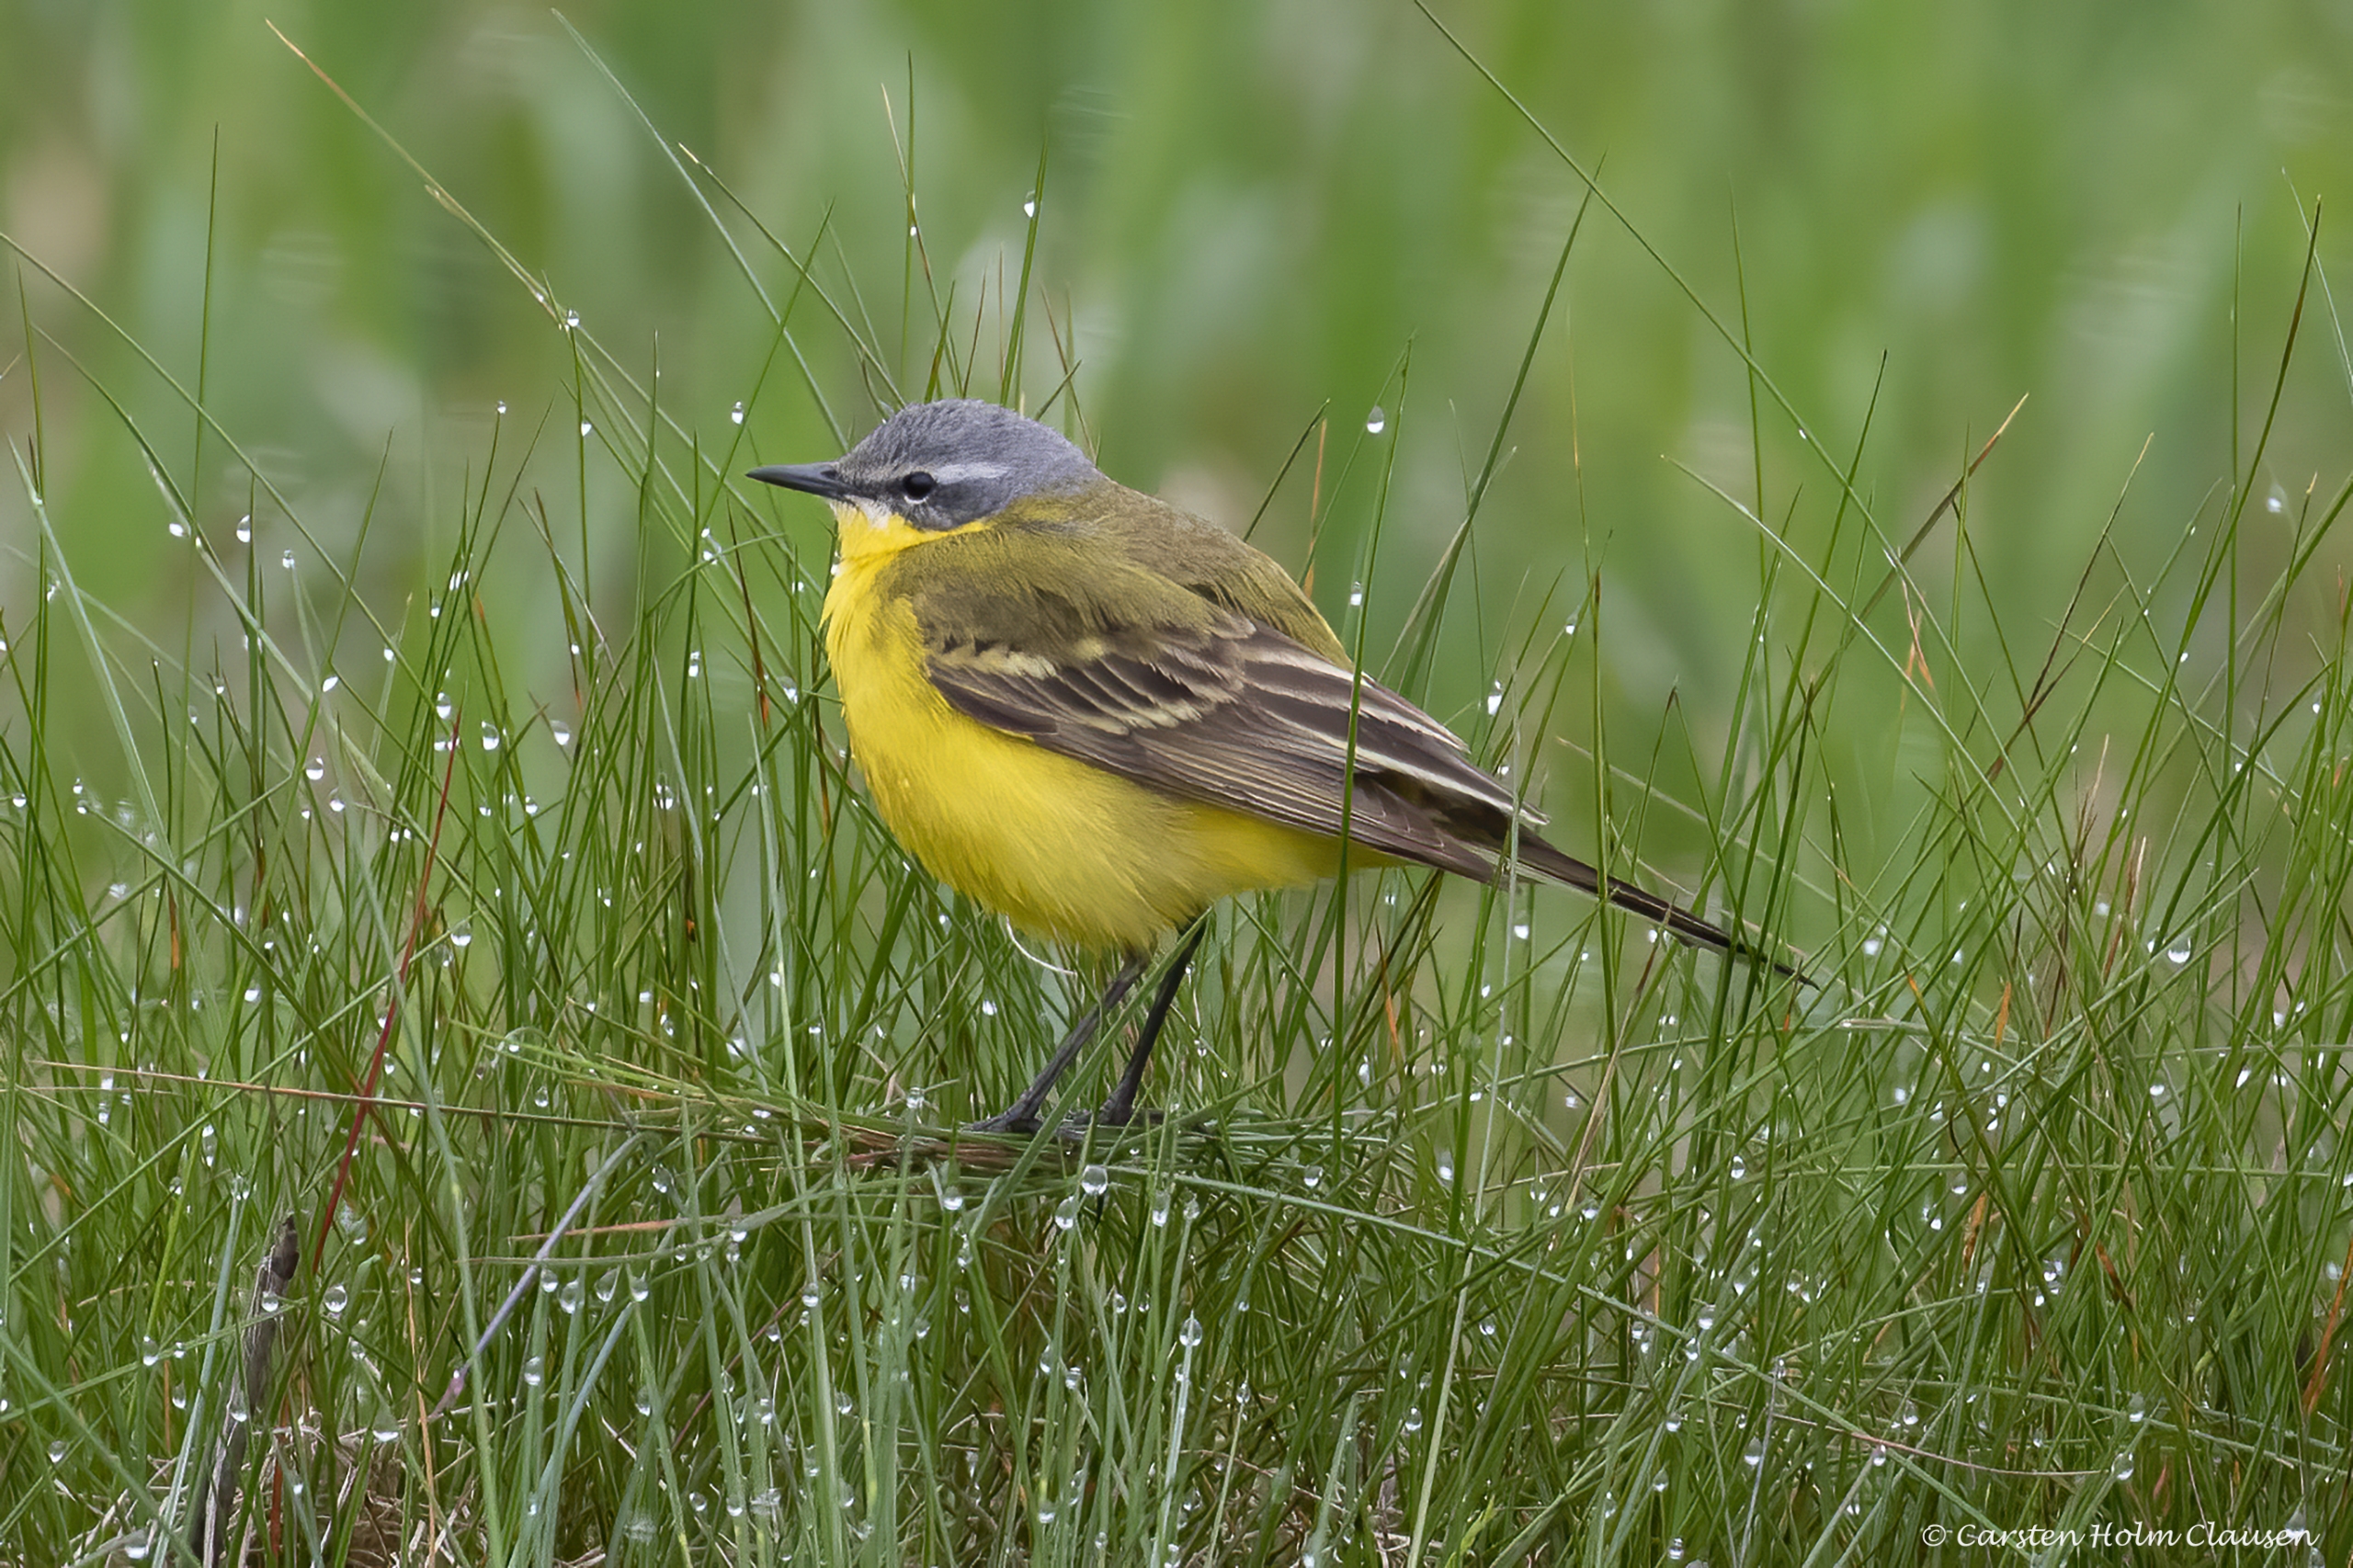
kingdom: Animalia
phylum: Chordata
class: Aves
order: Passeriformes
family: Motacillidae
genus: Motacilla
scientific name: Motacilla flava
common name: Gul vipstjert
